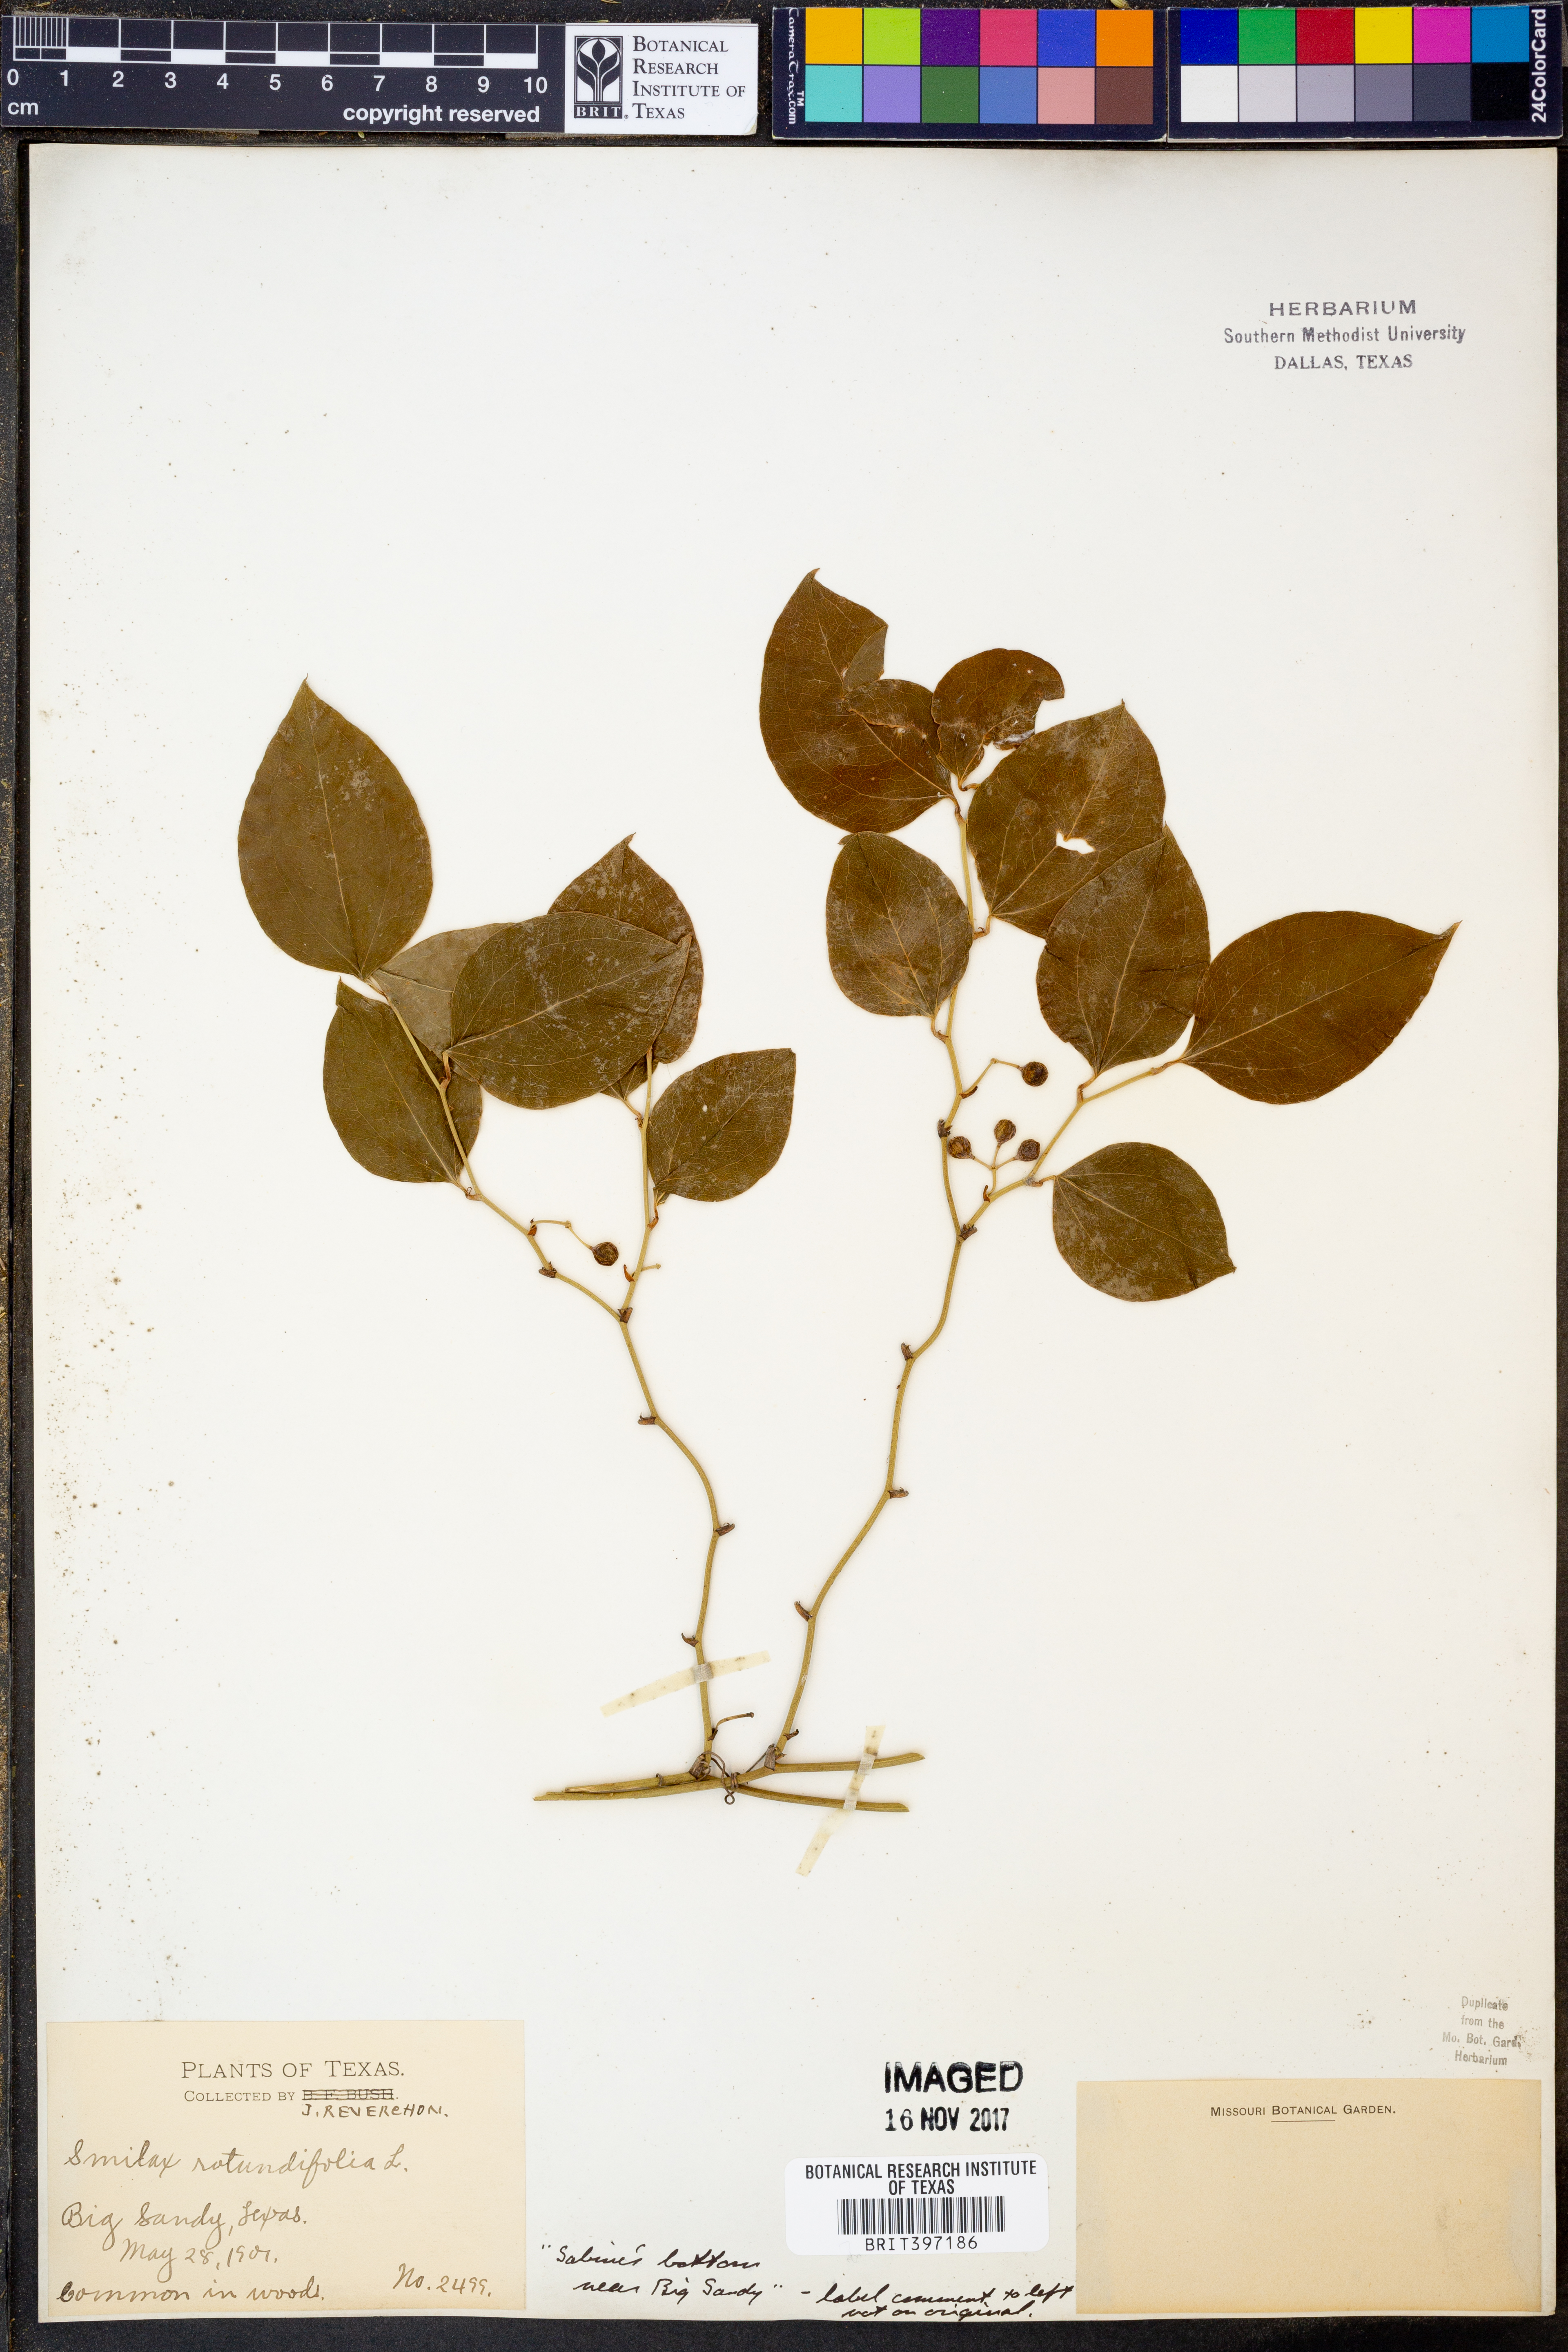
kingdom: Plantae
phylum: Tracheophyta
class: Liliopsida
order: Liliales
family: Smilacaceae
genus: Smilax
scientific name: Smilax rotundifolia
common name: Bullbriar
